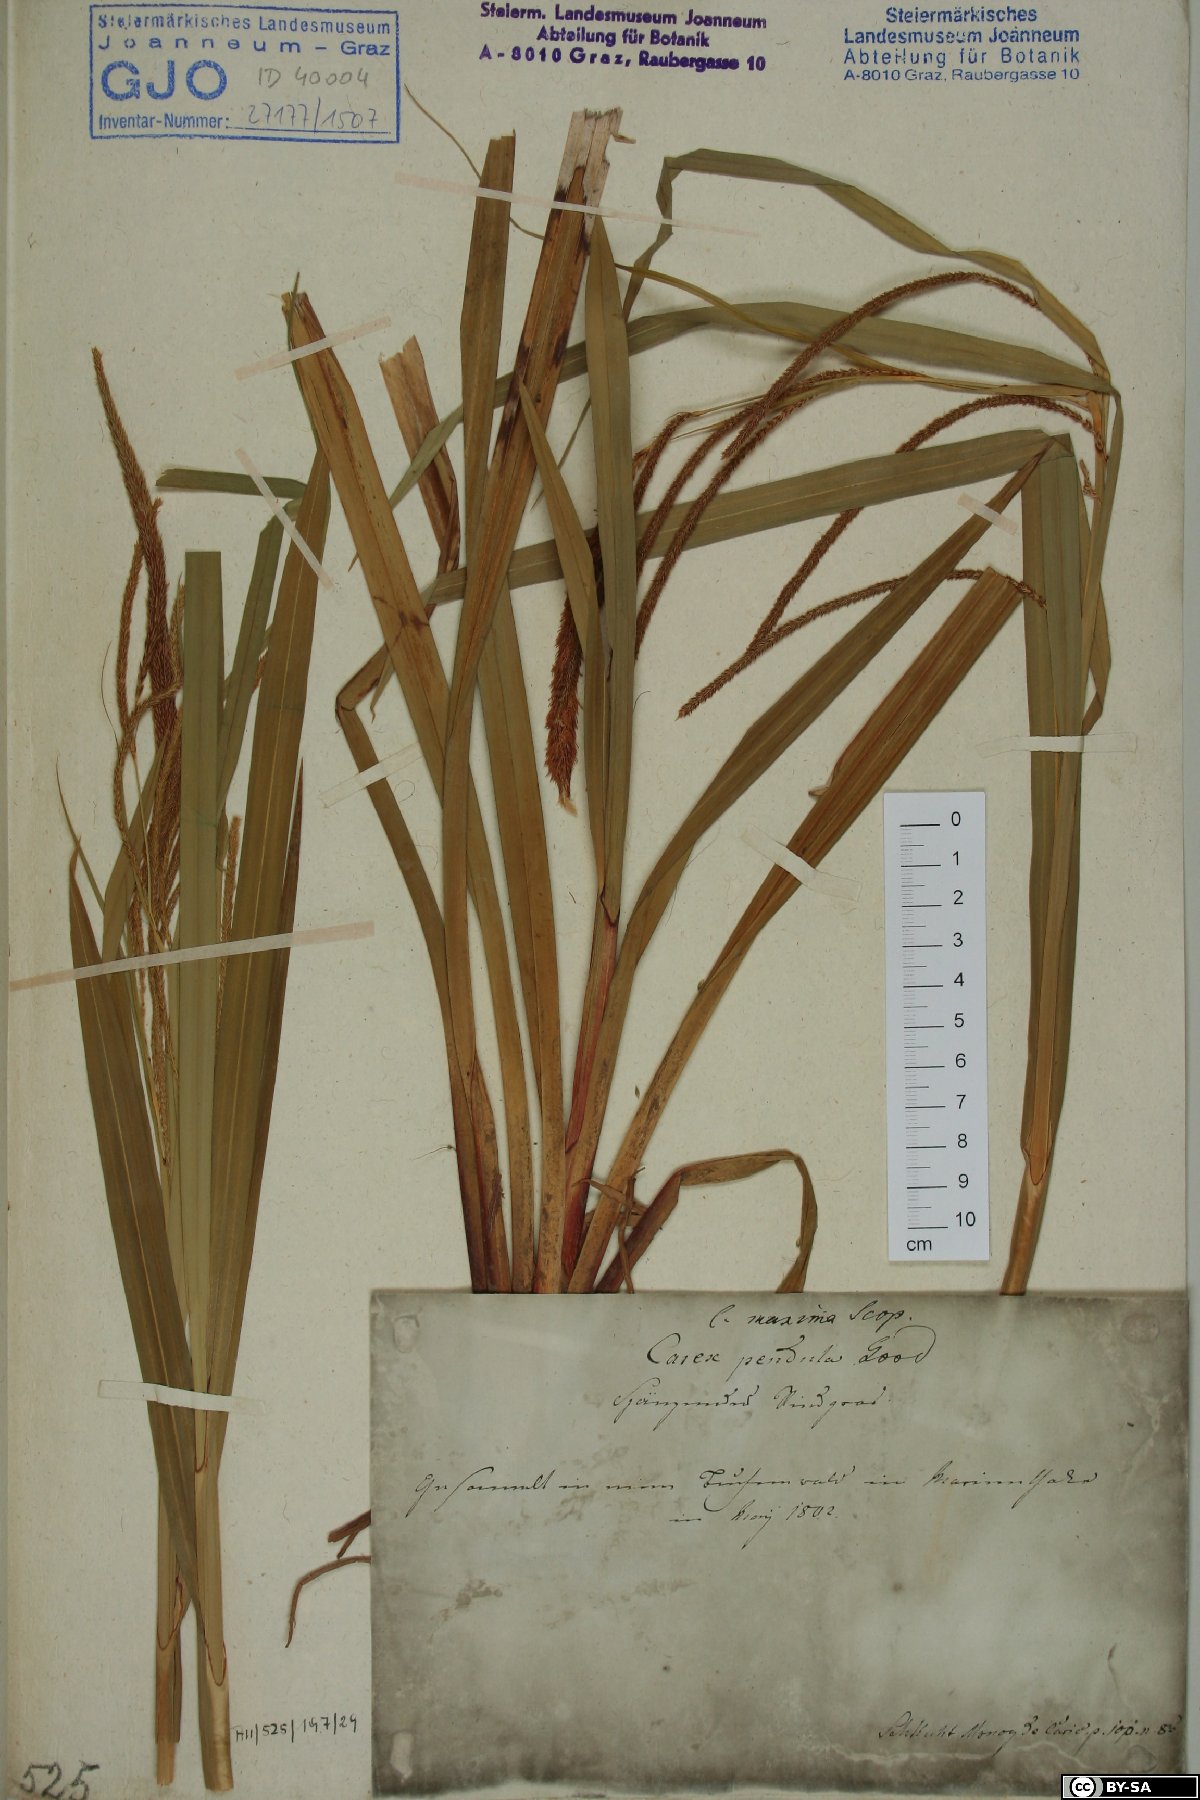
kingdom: Plantae
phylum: Tracheophyta
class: Liliopsida
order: Poales
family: Cyperaceae
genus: Carex
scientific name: Carex pendula
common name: Pendulous sedge
